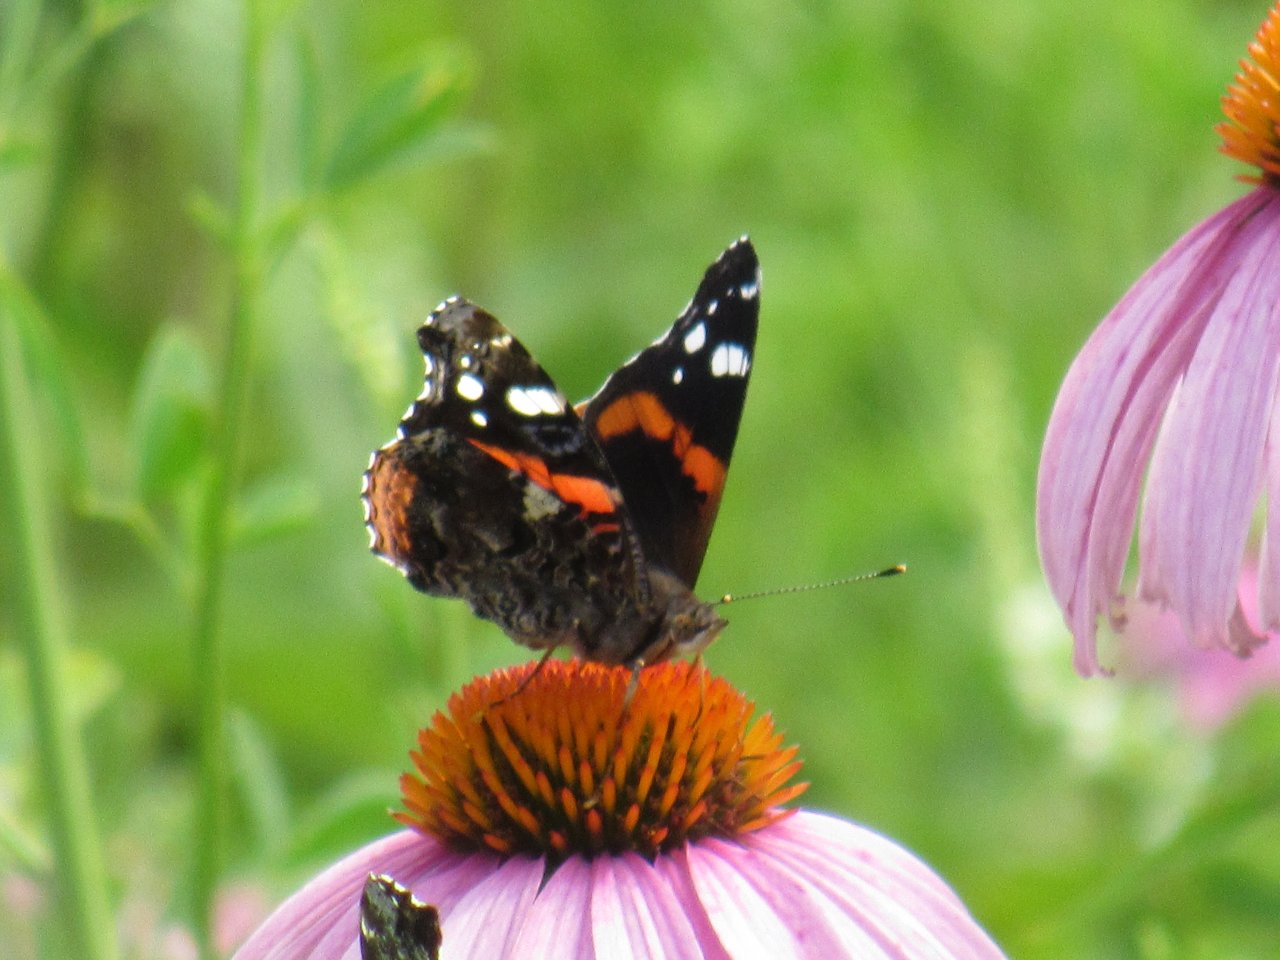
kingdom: Animalia
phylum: Arthropoda
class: Insecta
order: Lepidoptera
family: Nymphalidae
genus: Vanessa
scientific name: Vanessa atalanta
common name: Red Admiral
